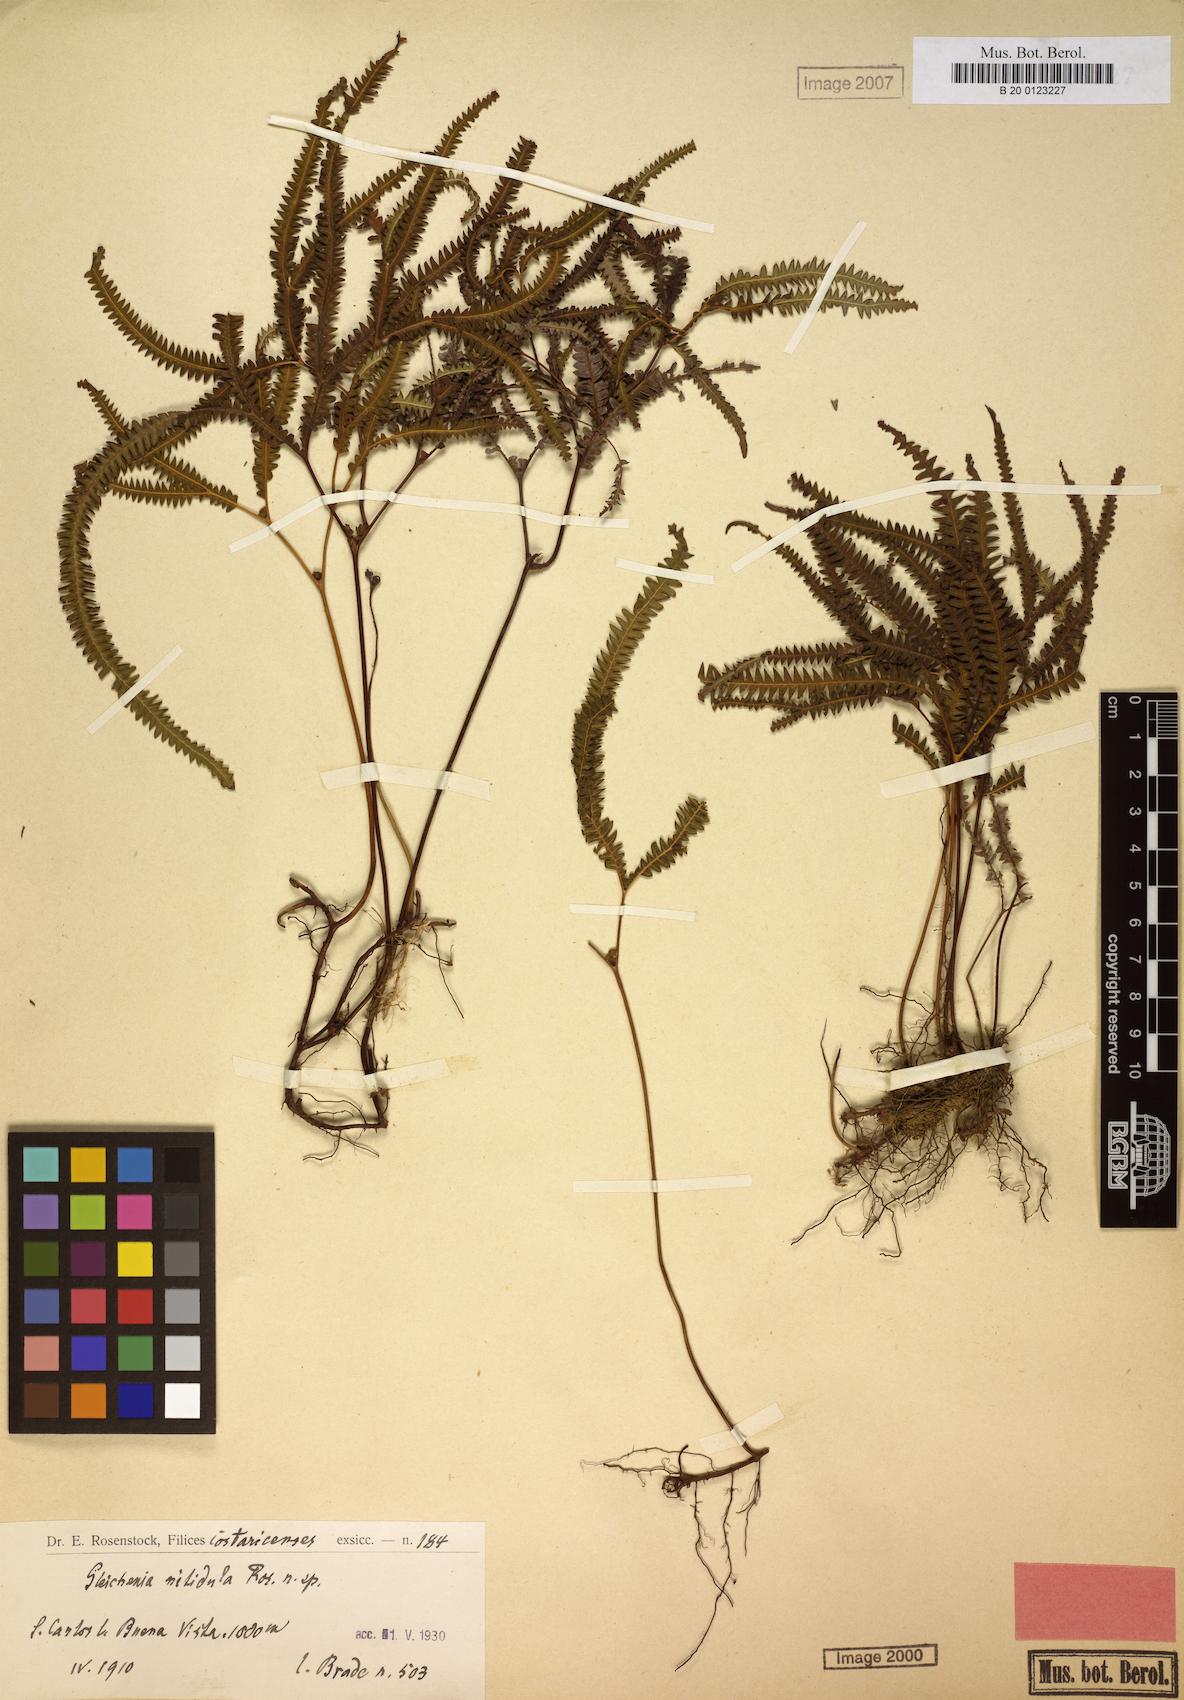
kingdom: Plantae
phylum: Tracheophyta
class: Polypodiopsida
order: Gleicheniales
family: Gleicheniaceae
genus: Sticherus
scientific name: Sticherus hypoleucus
